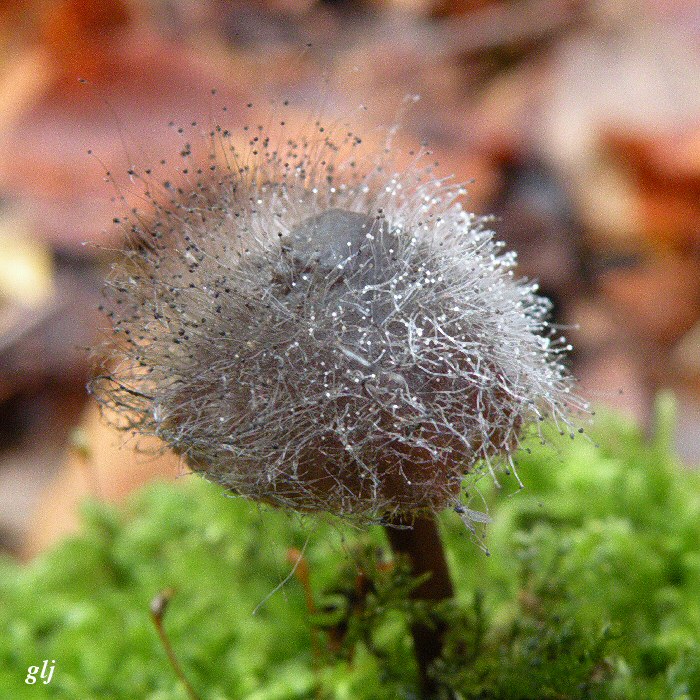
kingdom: Fungi
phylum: Mucoromycota
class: Mucoromycetes
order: Mucorales
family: Phycomycetaceae
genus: Spinellus
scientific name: Spinellus fusiger
